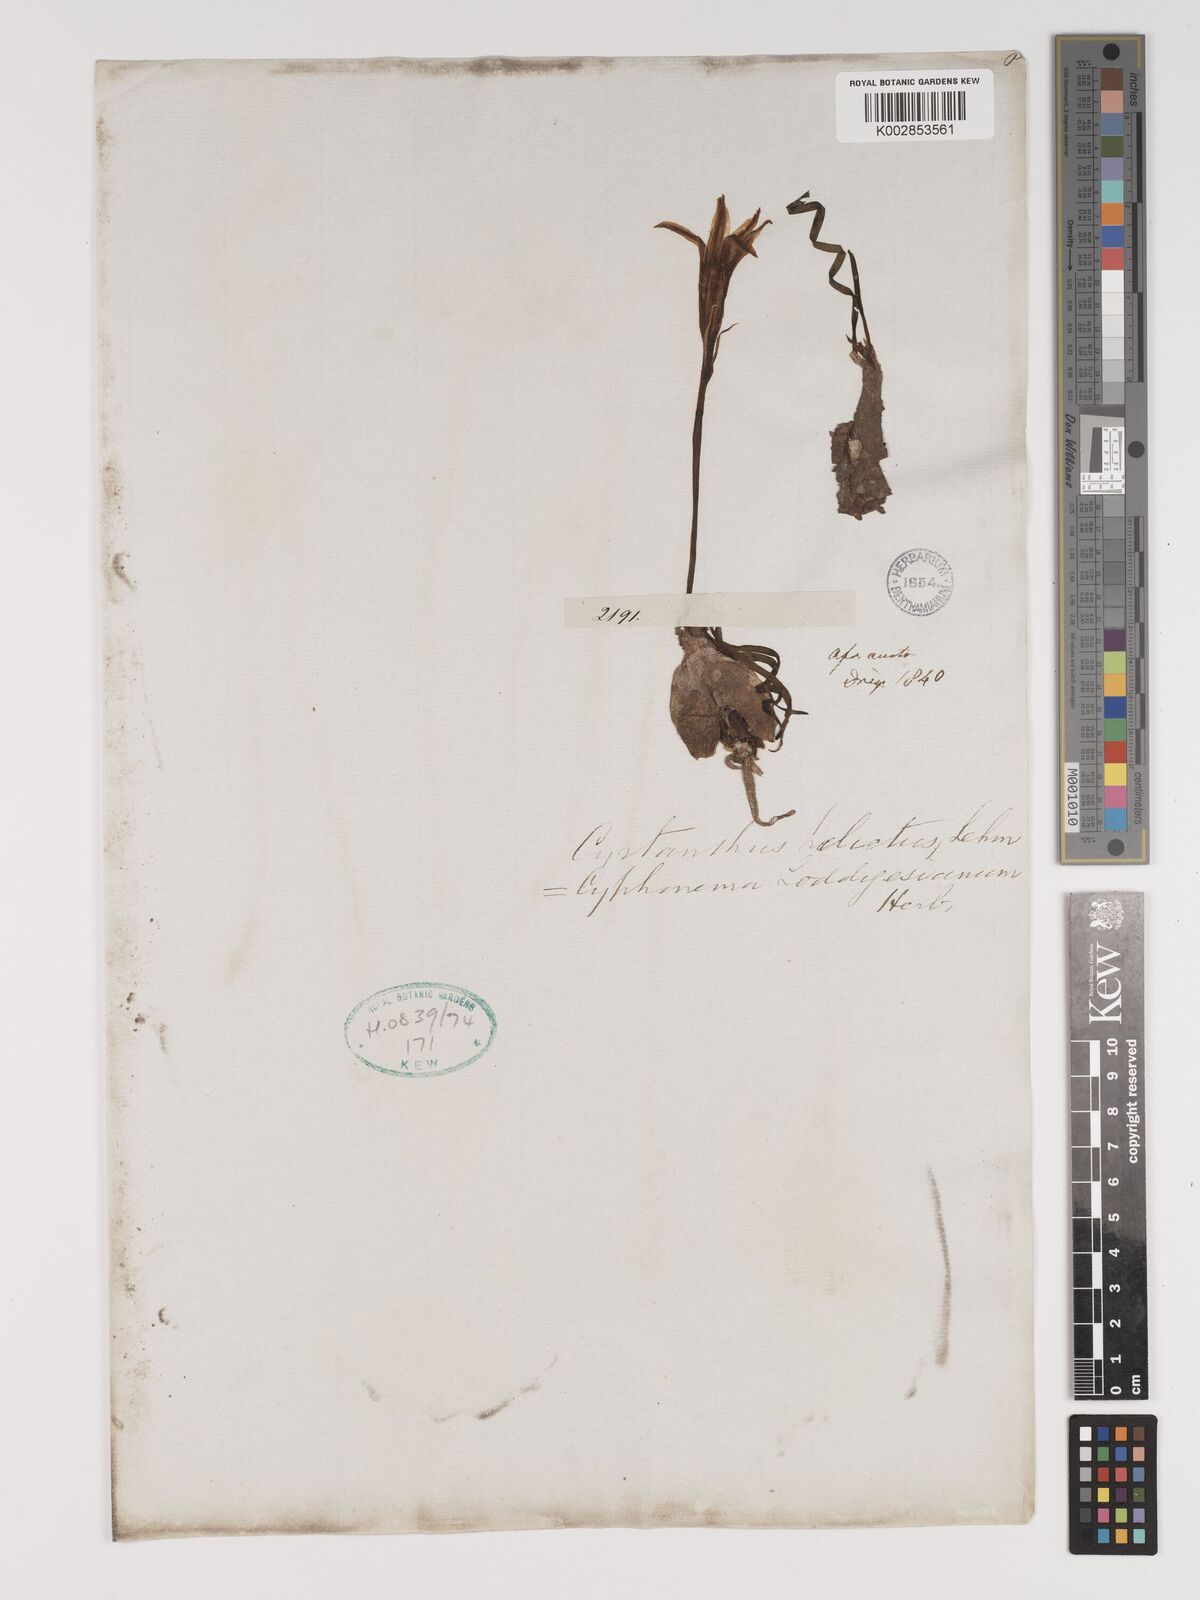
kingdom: Plantae
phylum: Tracheophyta
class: Liliopsida
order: Asparagales
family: Amaryllidaceae
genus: Cyrtanthus
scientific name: Cyrtanthus helictus
